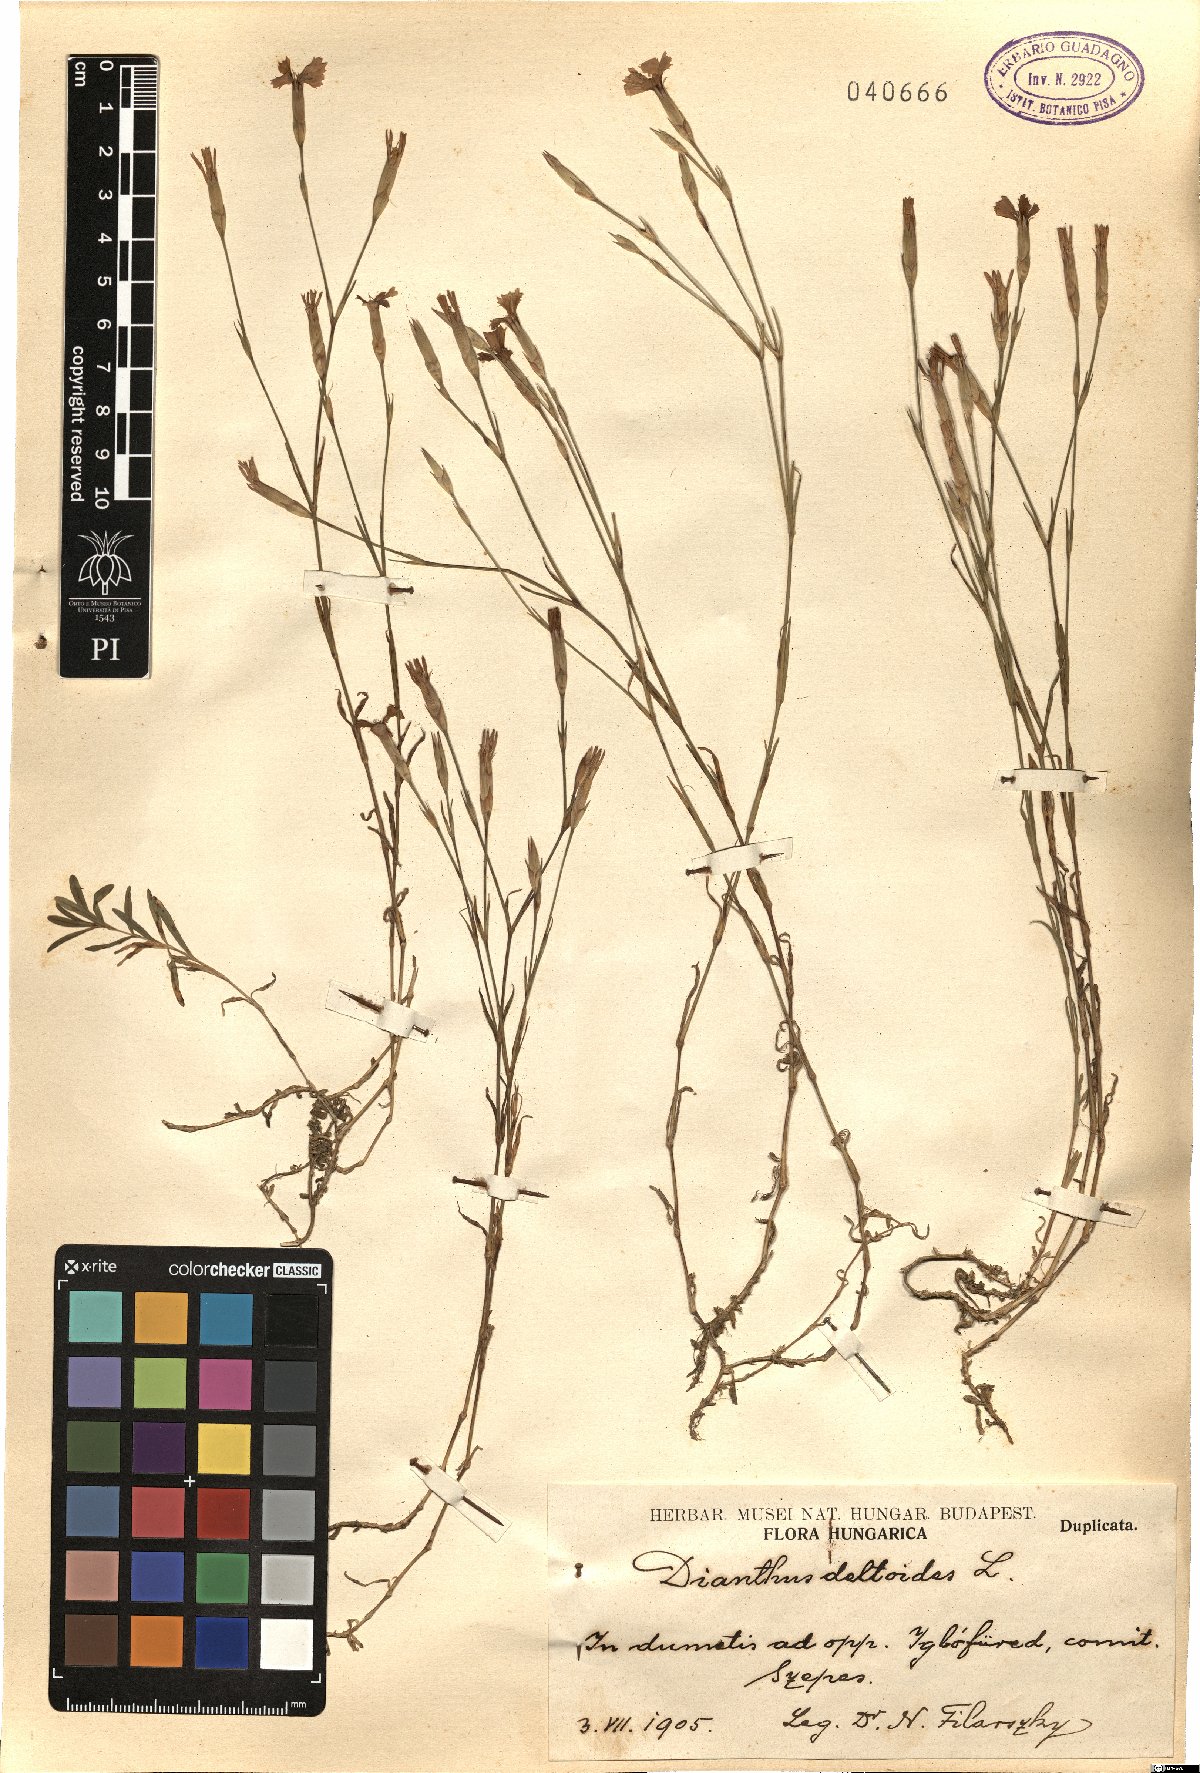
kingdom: Plantae
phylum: Tracheophyta
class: Magnoliopsida
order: Caryophyllales
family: Caryophyllaceae
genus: Dianthus
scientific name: Dianthus deltoides
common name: Maiden pink
